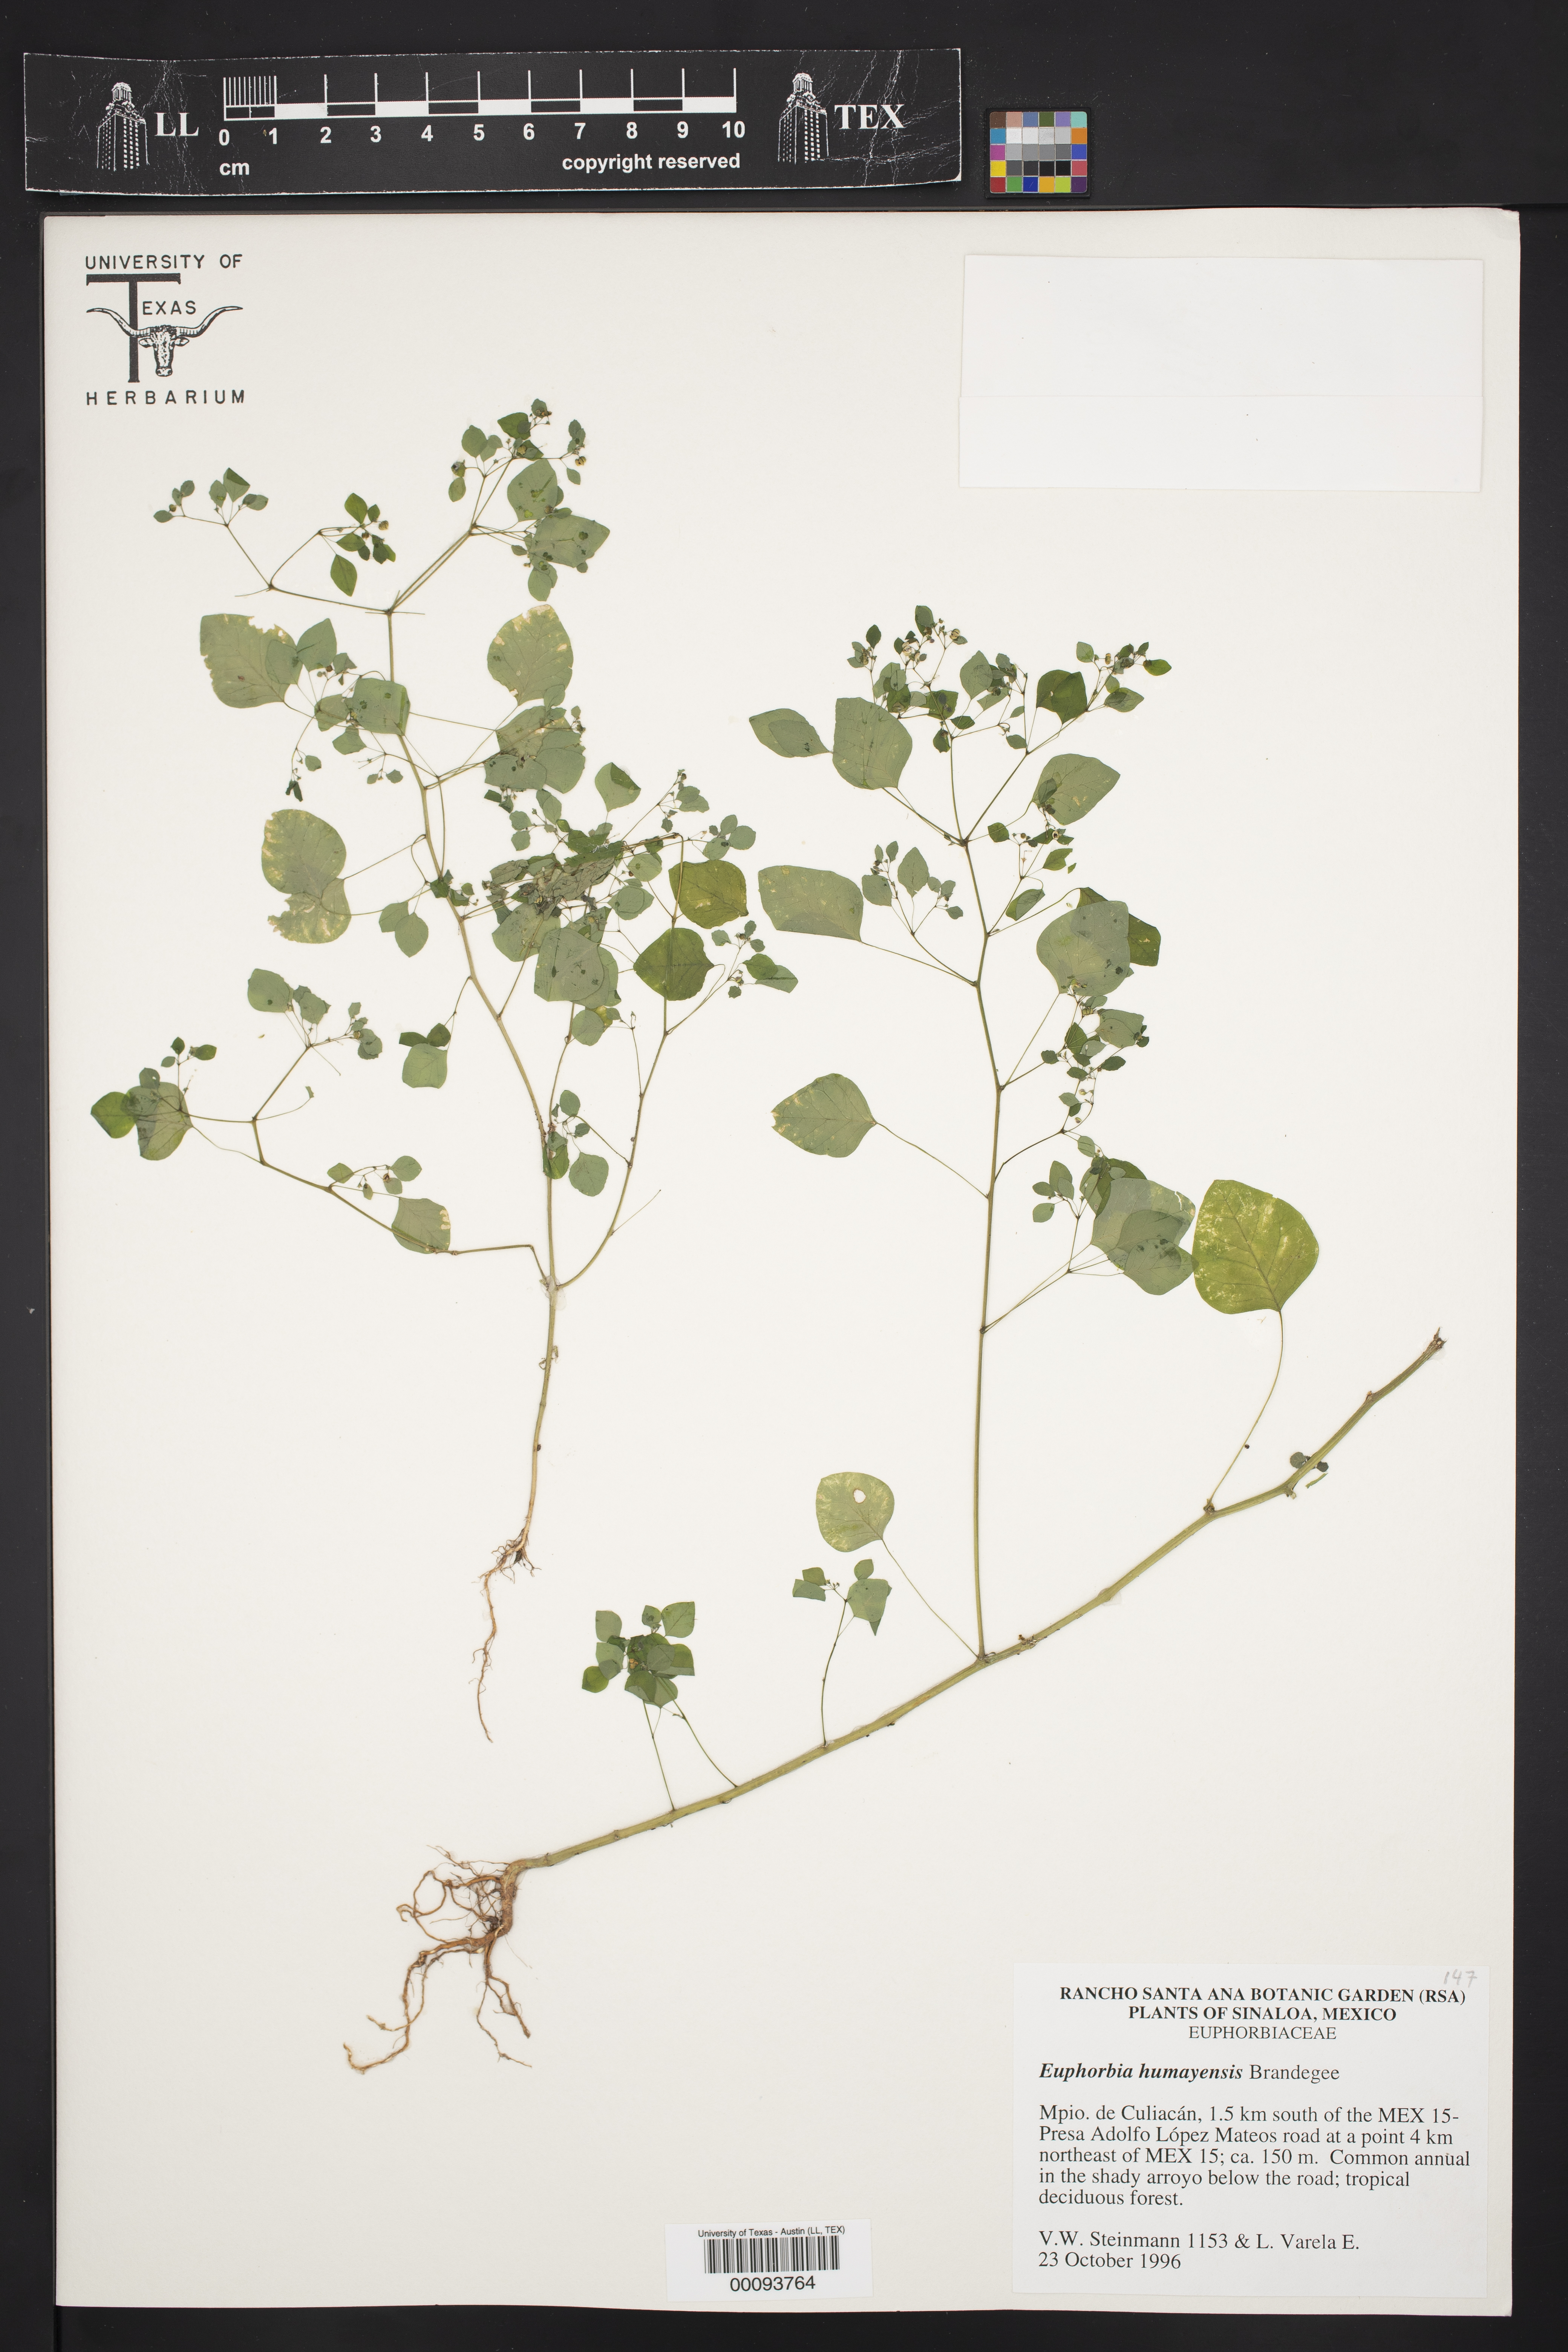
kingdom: Plantae
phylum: Tracheophyta
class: Magnoliopsida
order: Malpighiales
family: Euphorbiaceae
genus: Euphorbia
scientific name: Euphorbia humayensis
